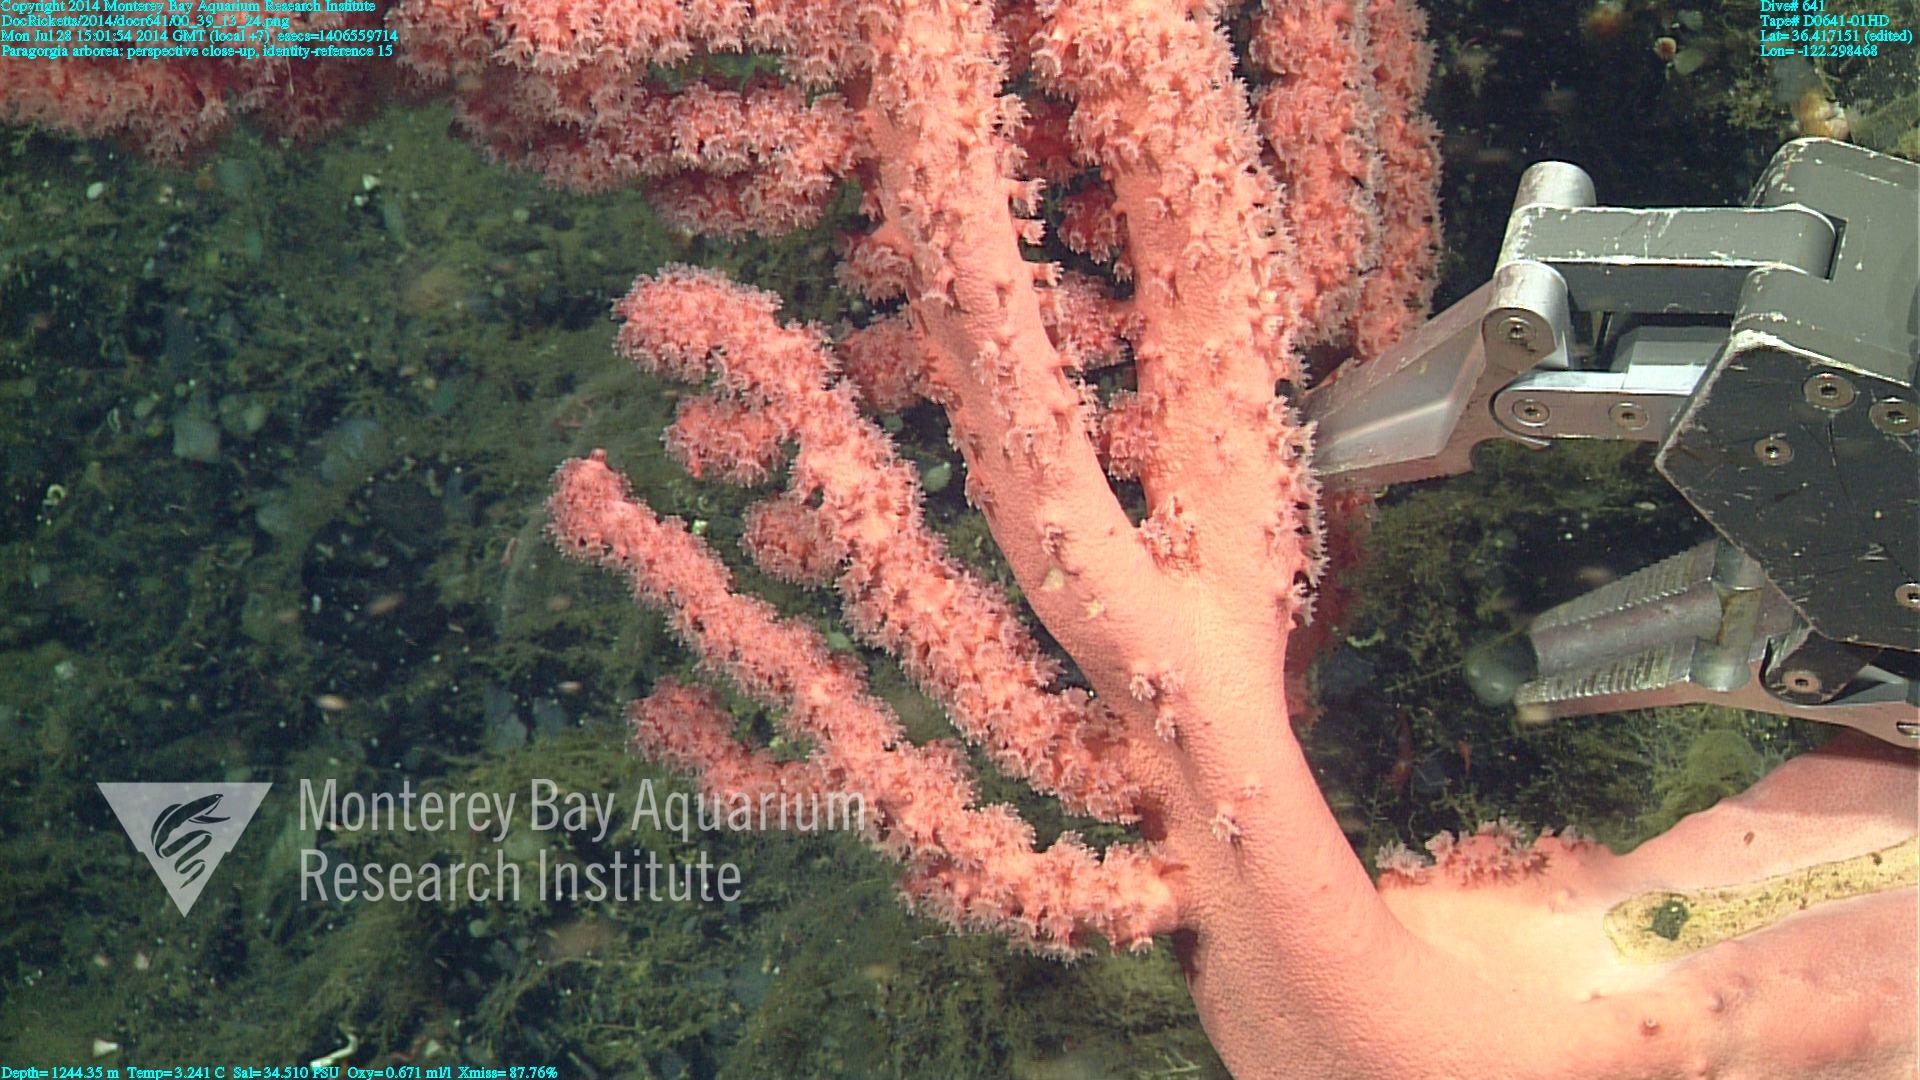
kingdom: Animalia
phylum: Cnidaria
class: Anthozoa
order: Scleralcyonacea
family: Coralliidae
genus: Paragorgia
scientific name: Paragorgia arborea
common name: Bubble gum coral
